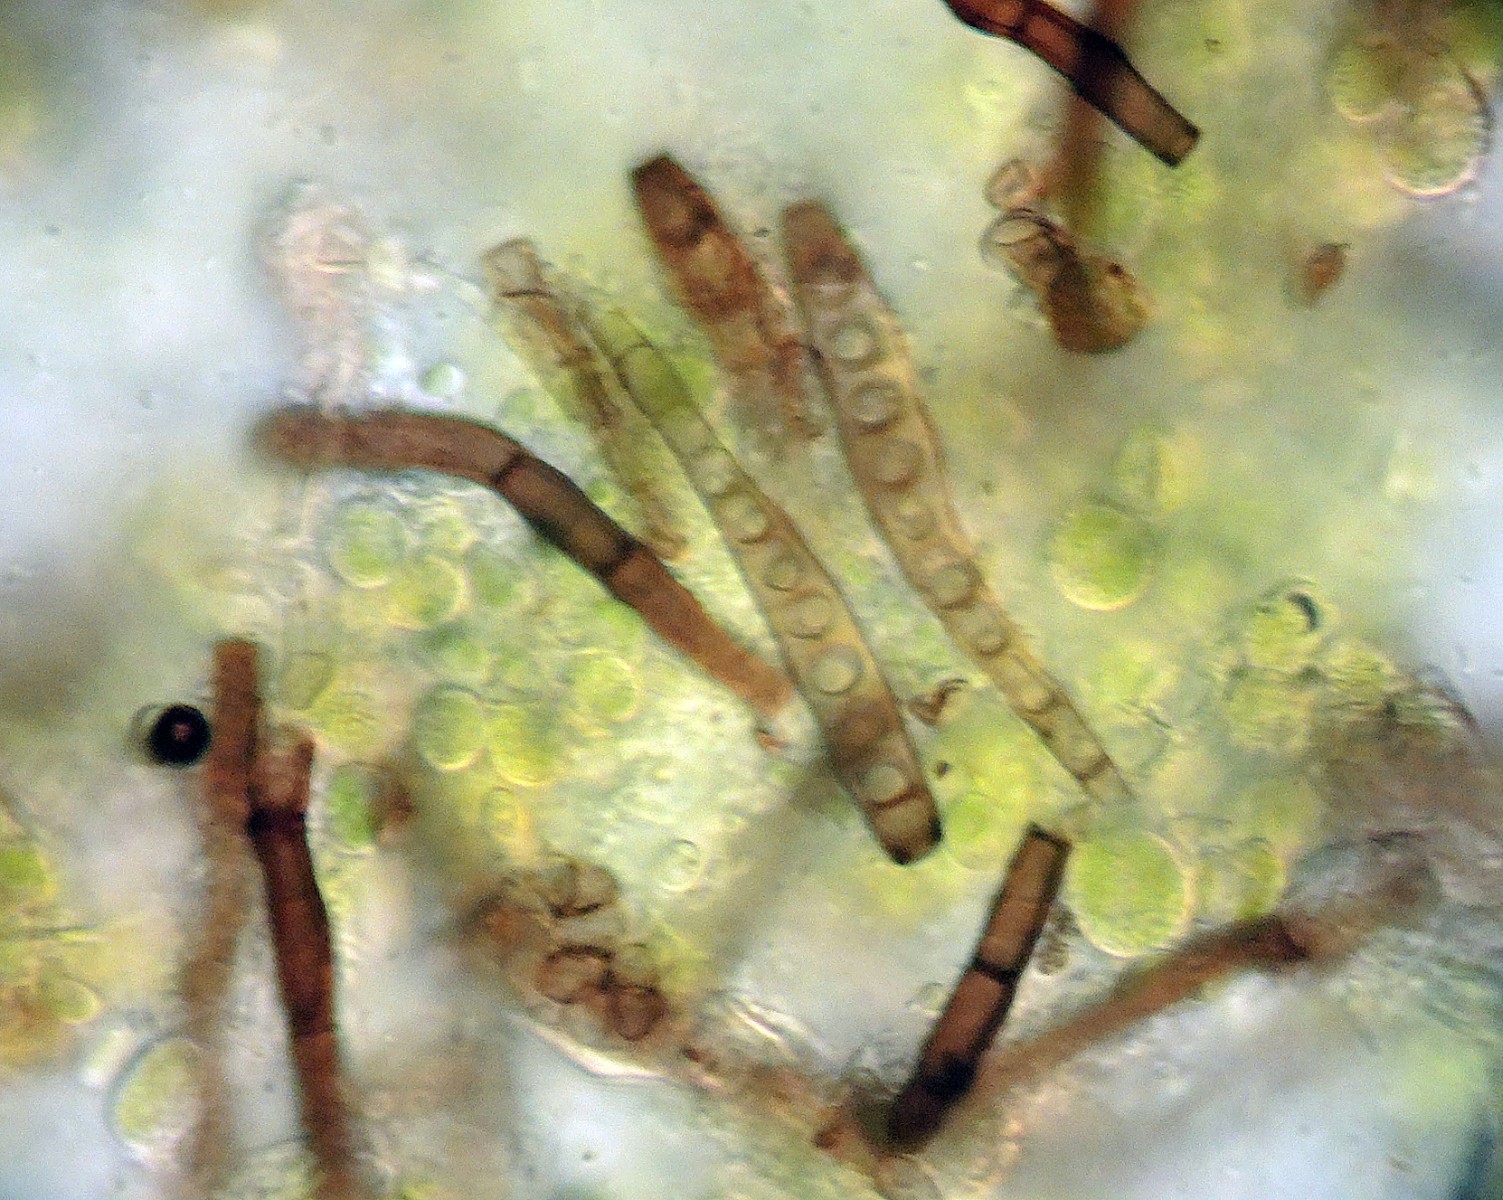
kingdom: Fungi
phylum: Ascomycota
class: Sordariomycetes
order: Chaetosphaeriales
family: Chaetosphaeriaceae
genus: Ellisembia
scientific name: Ellisembia leptospora
